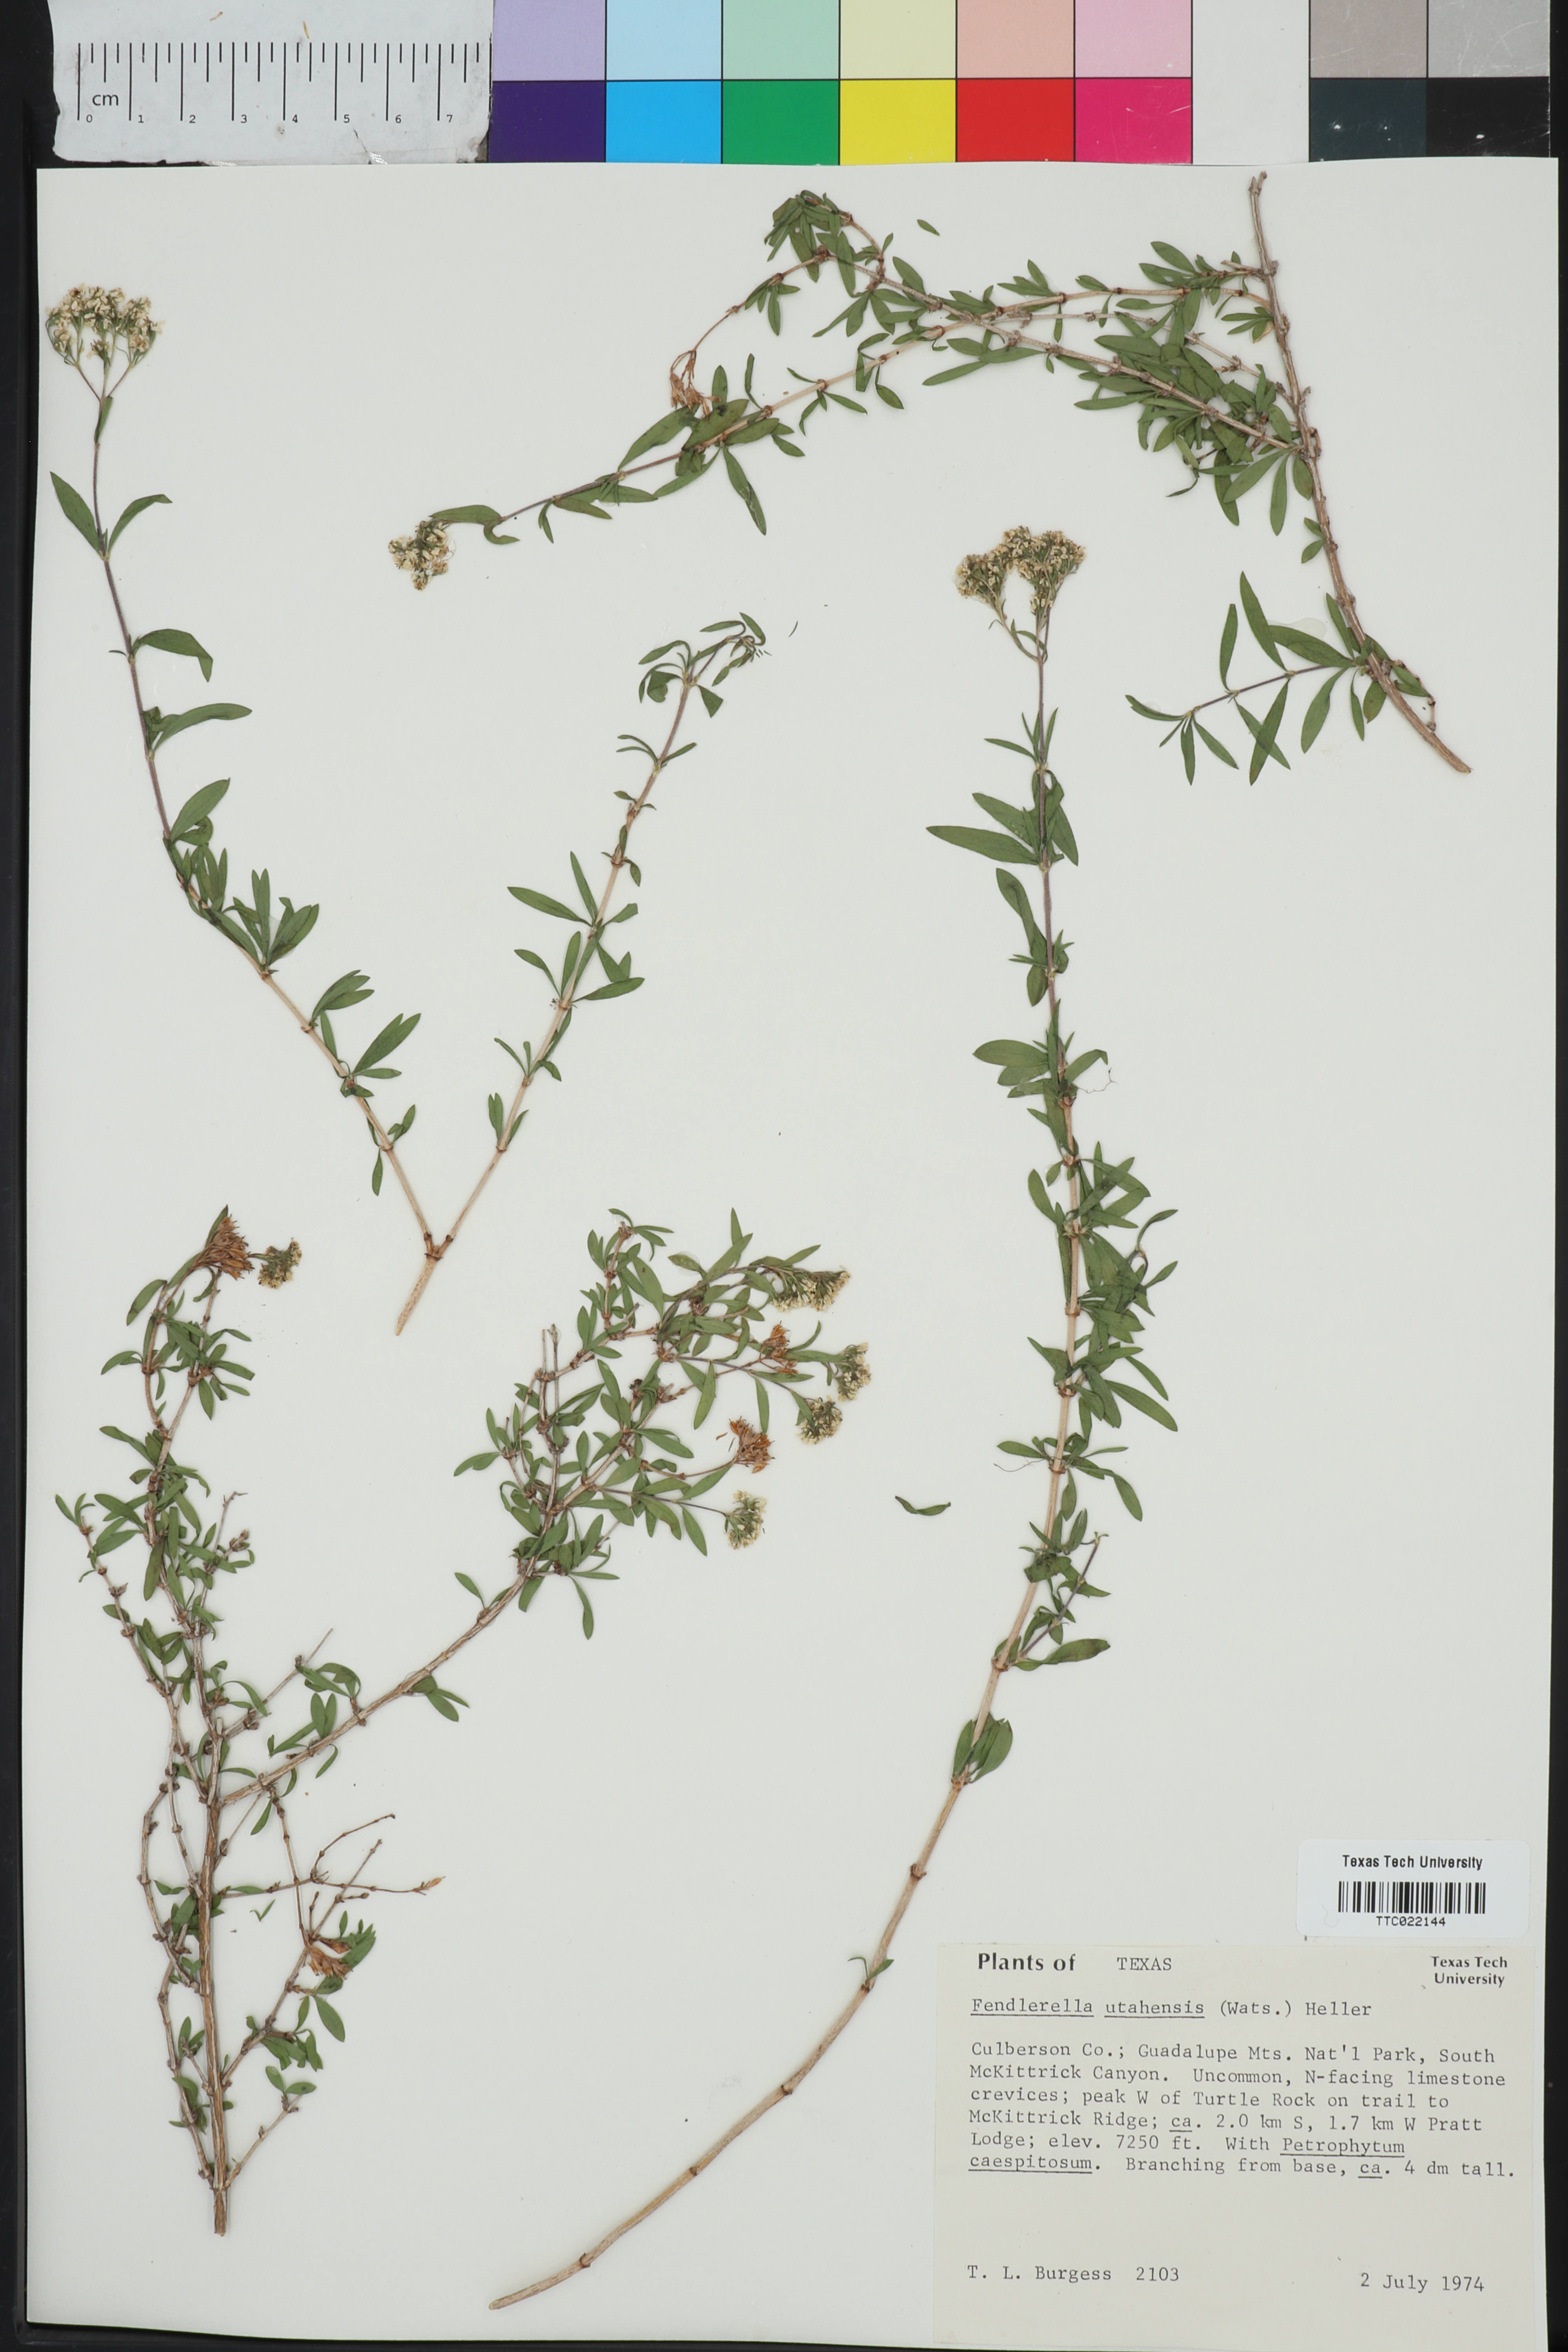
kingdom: Plantae
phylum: Tracheophyta
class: Magnoliopsida
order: Cornales
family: Hydrangeaceae
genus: Fendlerella
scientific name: Fendlerella utahensis
